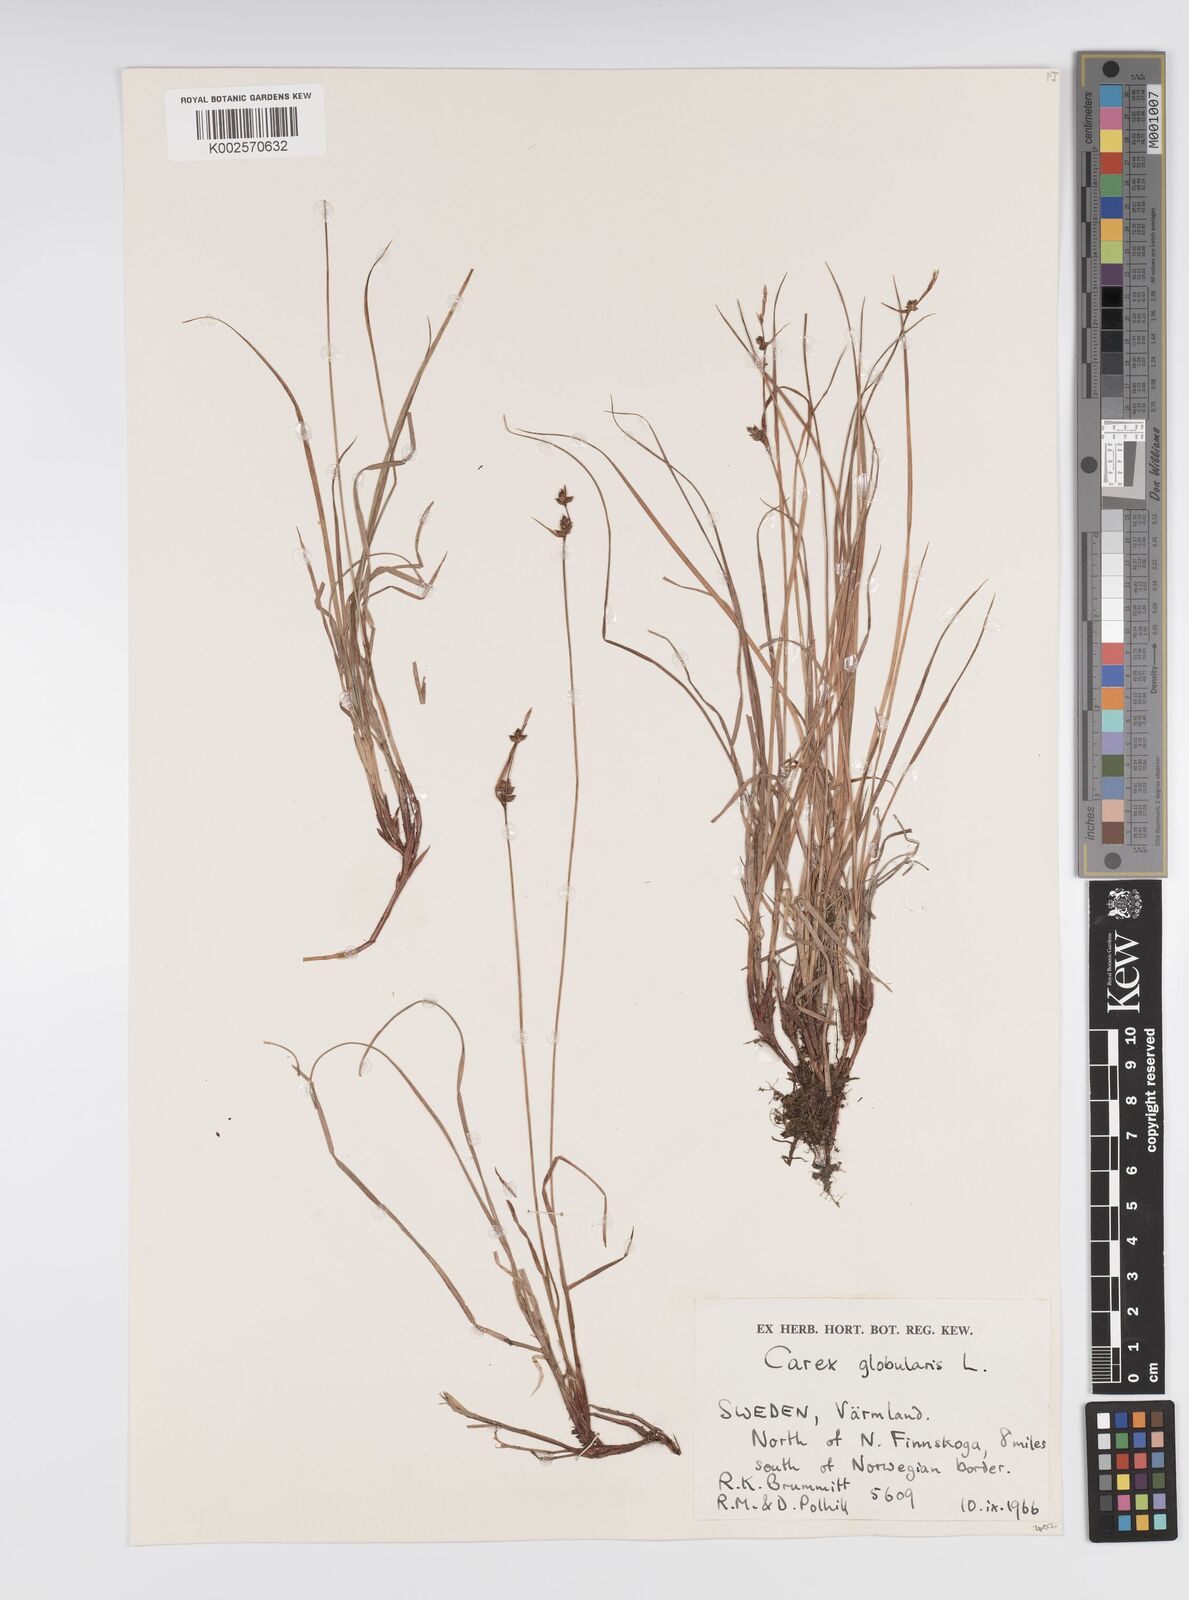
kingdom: Plantae
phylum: Tracheophyta
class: Liliopsida
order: Poales
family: Cyperaceae
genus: Carex
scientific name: Carex globularis
